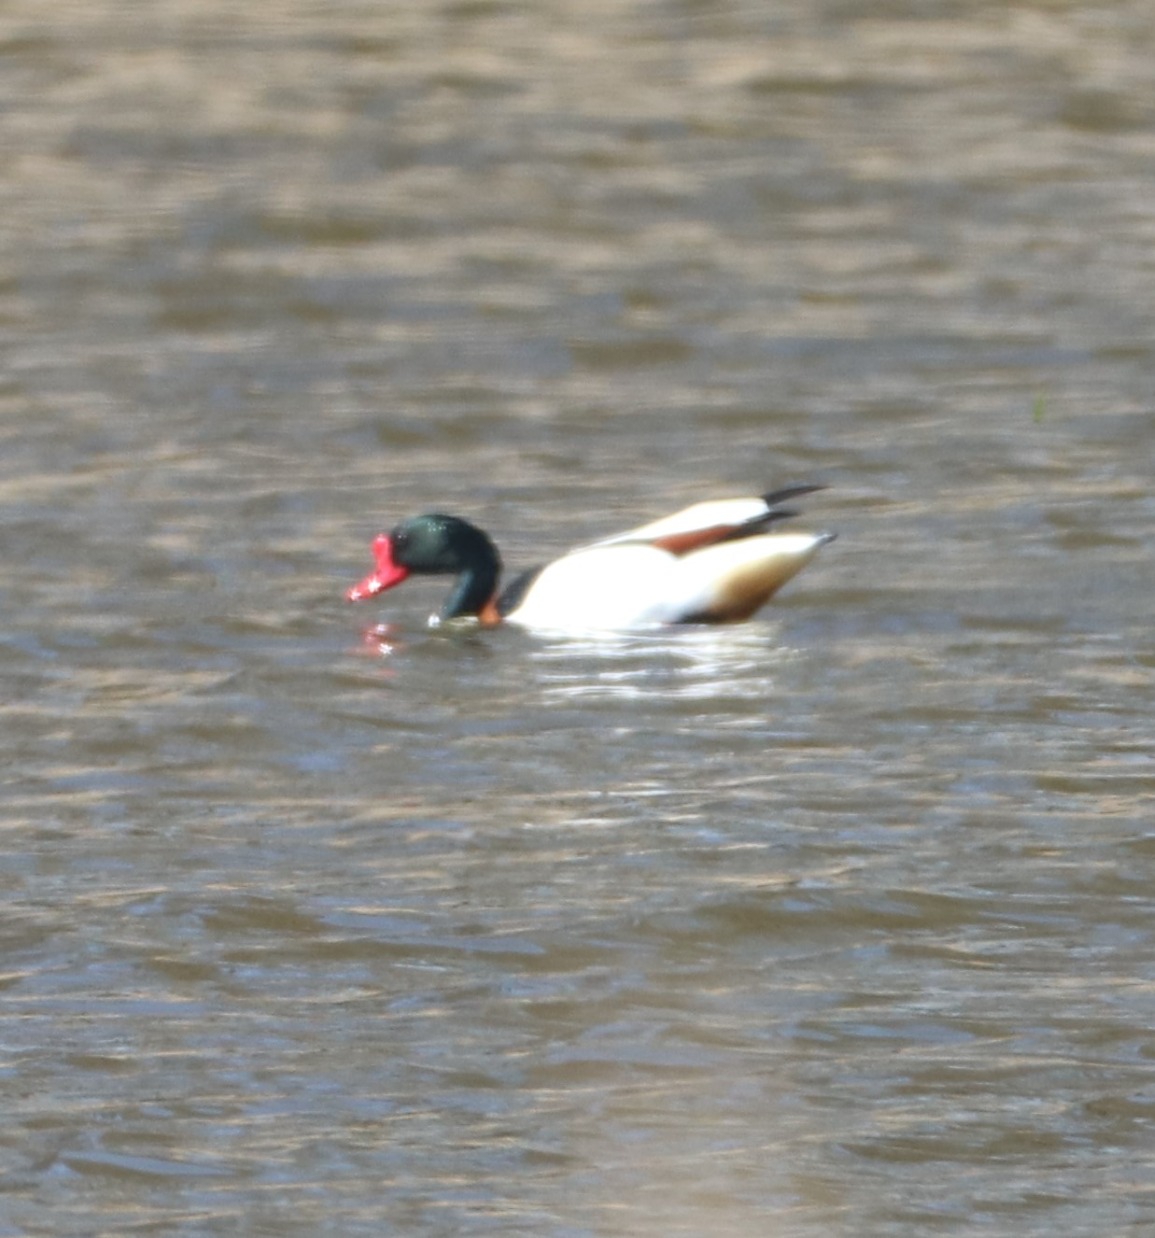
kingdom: Animalia
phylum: Chordata
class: Aves
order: Anseriformes
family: Anatidae
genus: Tadorna
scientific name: Tadorna tadorna
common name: Gravand
